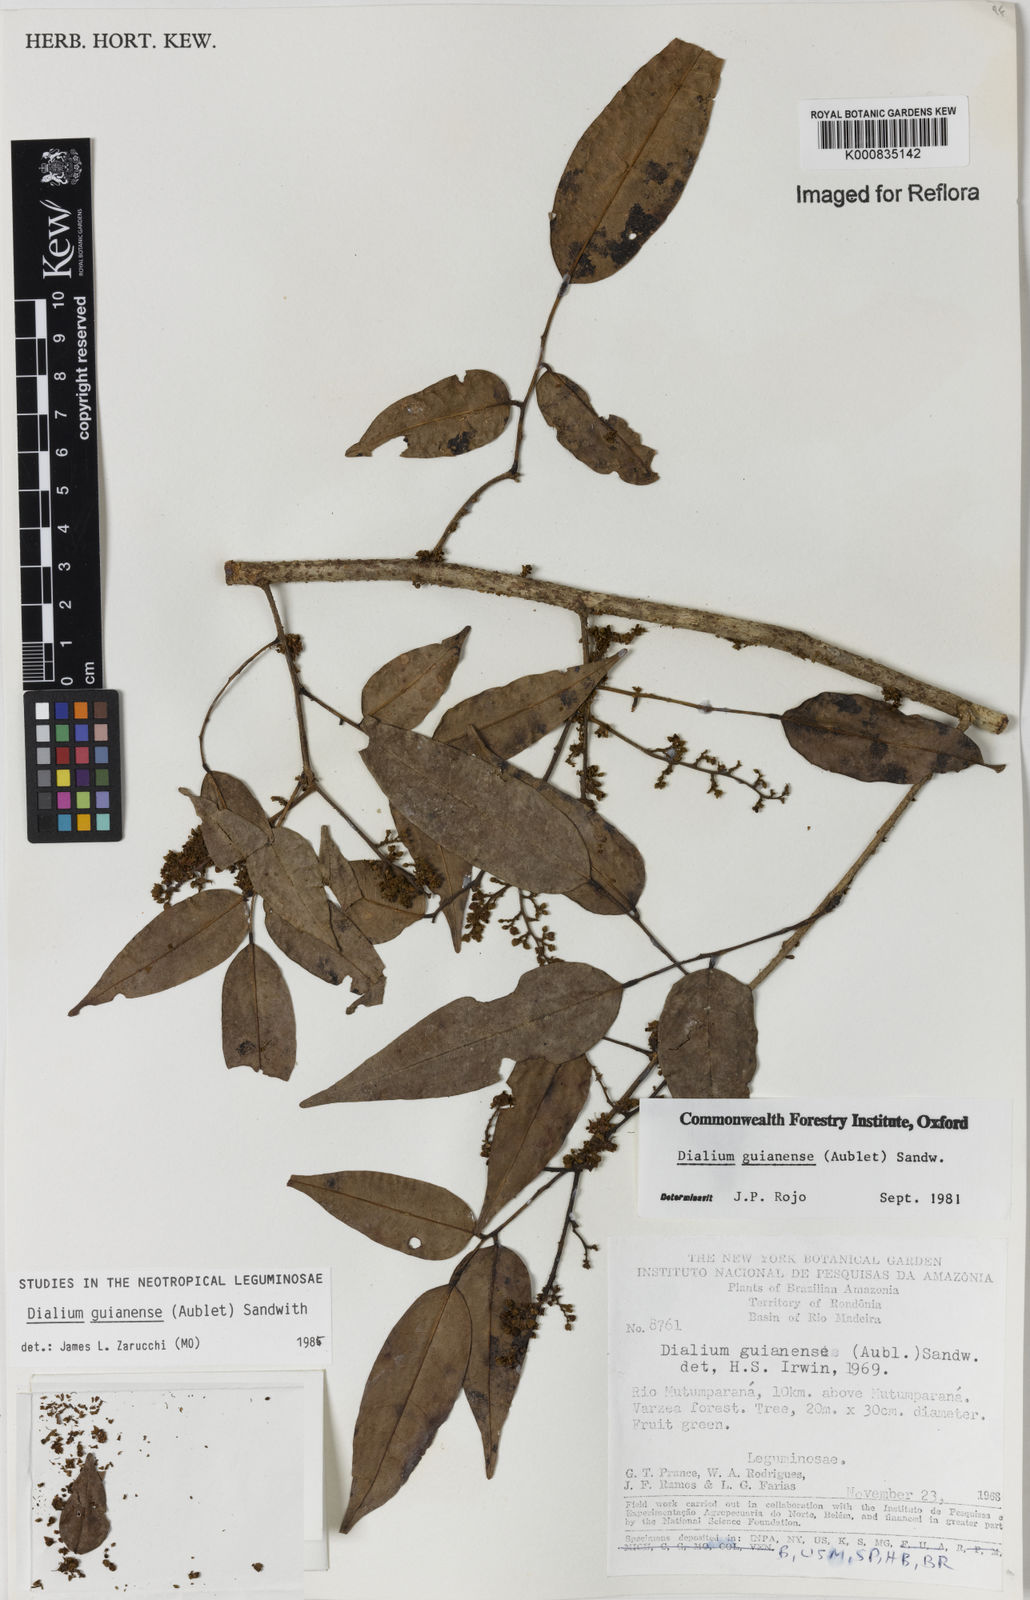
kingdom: Plantae
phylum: Tracheophyta
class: Magnoliopsida
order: Fabales
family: Fabaceae
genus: Dialium
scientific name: Dialium guianense
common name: Ironwood
